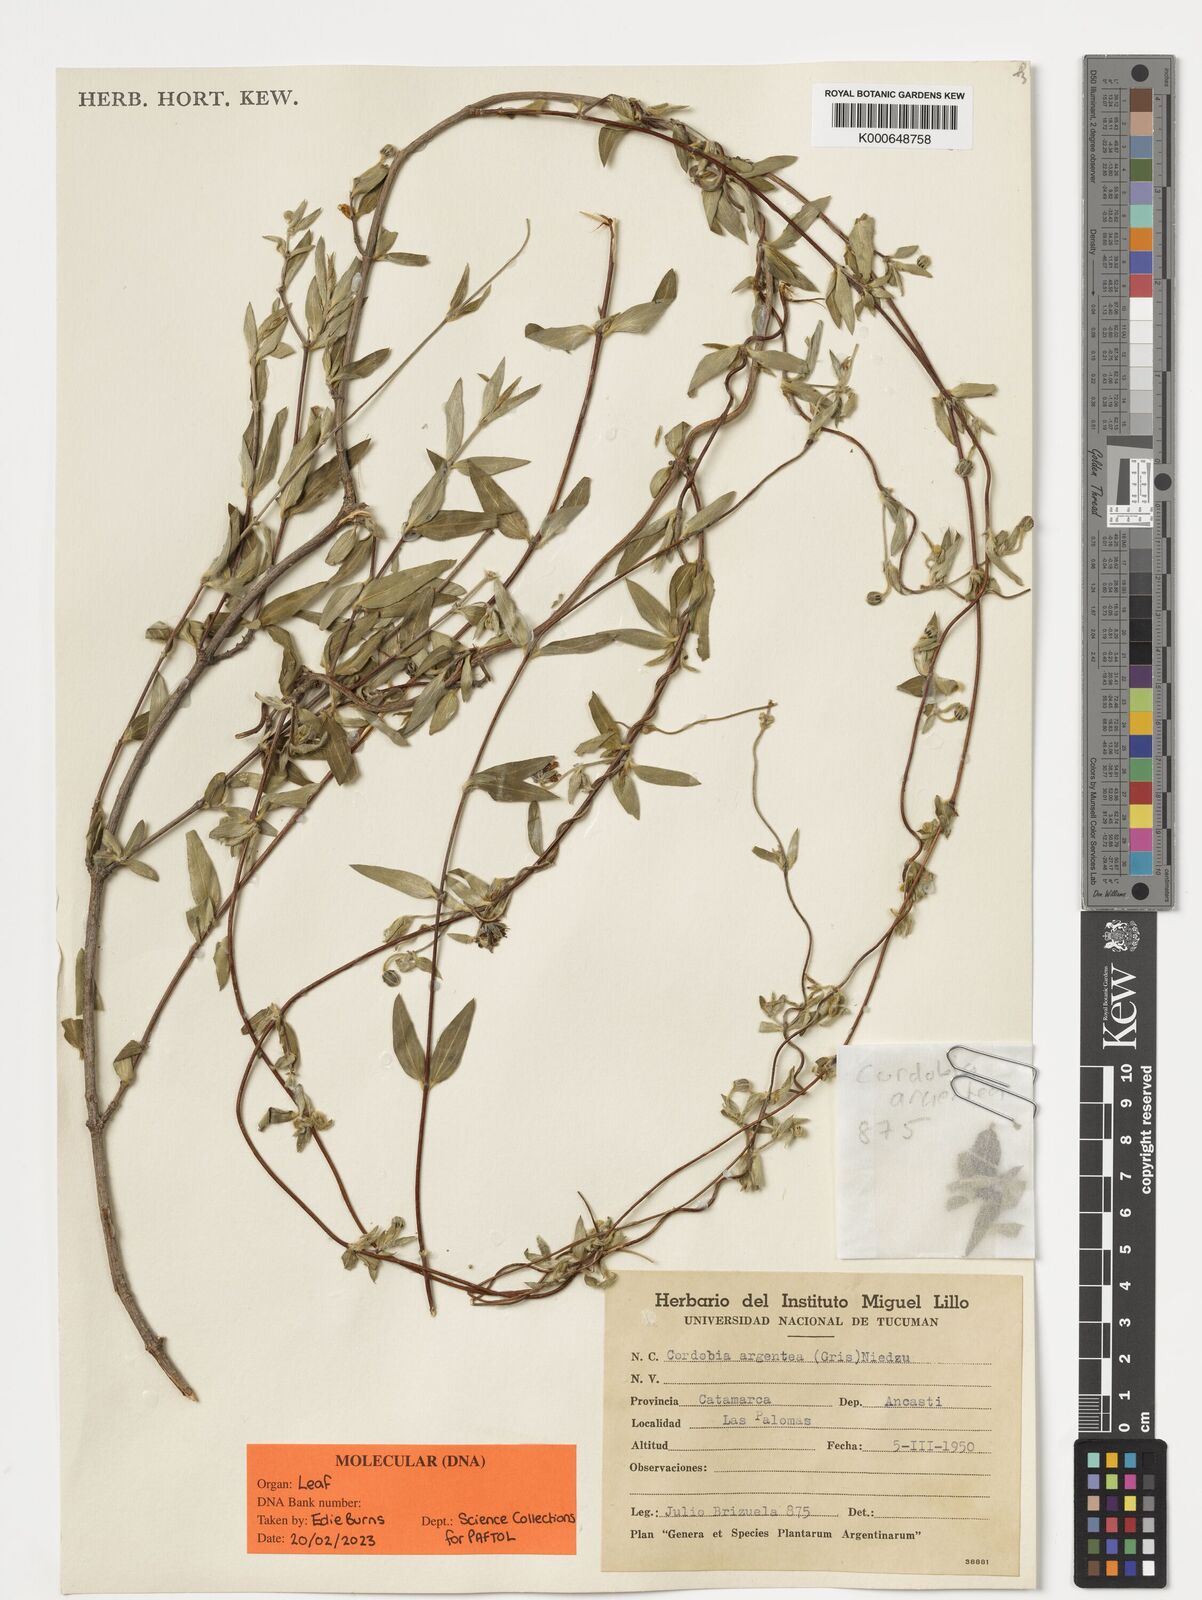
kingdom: Plantae
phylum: Tracheophyta
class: Magnoliopsida
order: Malpighiales
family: Malpighiaceae
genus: Cordobia
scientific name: Cordobia argentea
